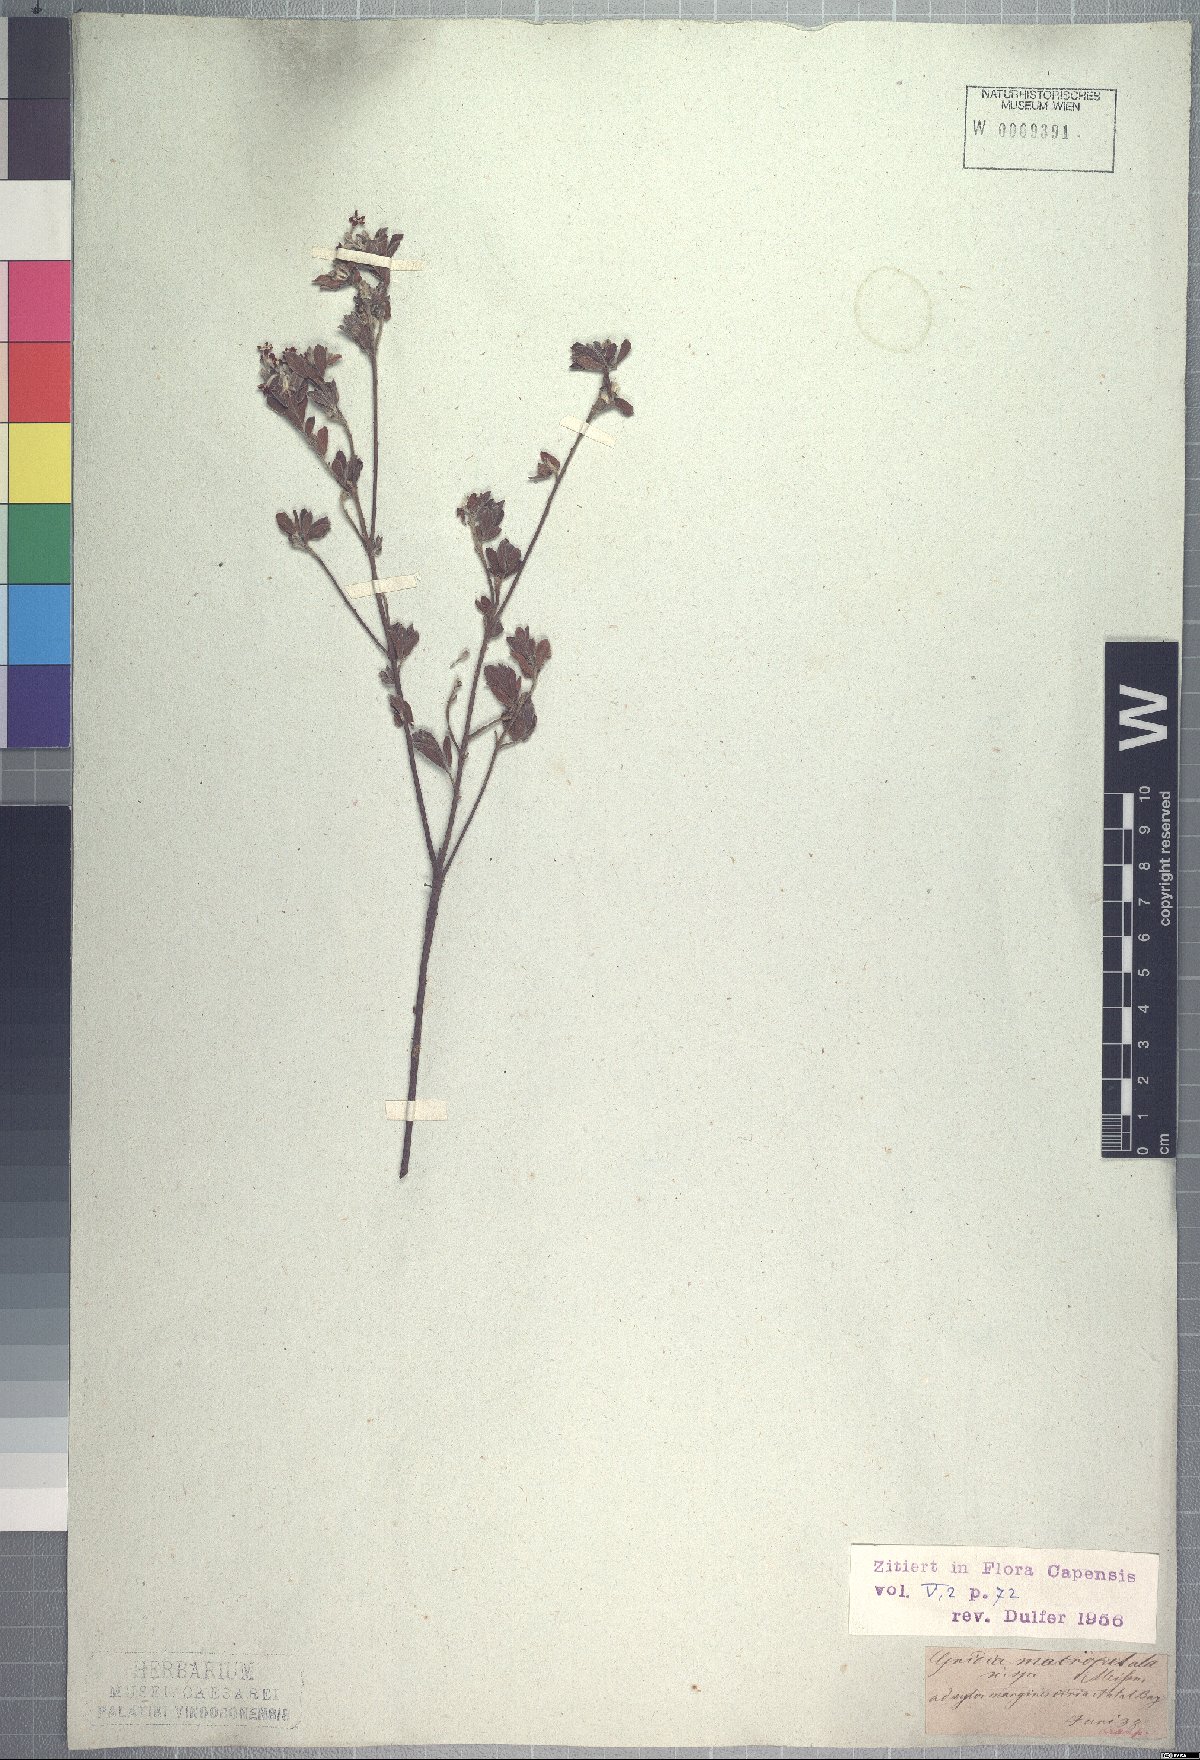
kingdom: Plantae
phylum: Tracheophyta
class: Magnoliopsida
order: Malvales
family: Thymelaeaceae
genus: Gnidia
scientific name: Gnidia macropetala
